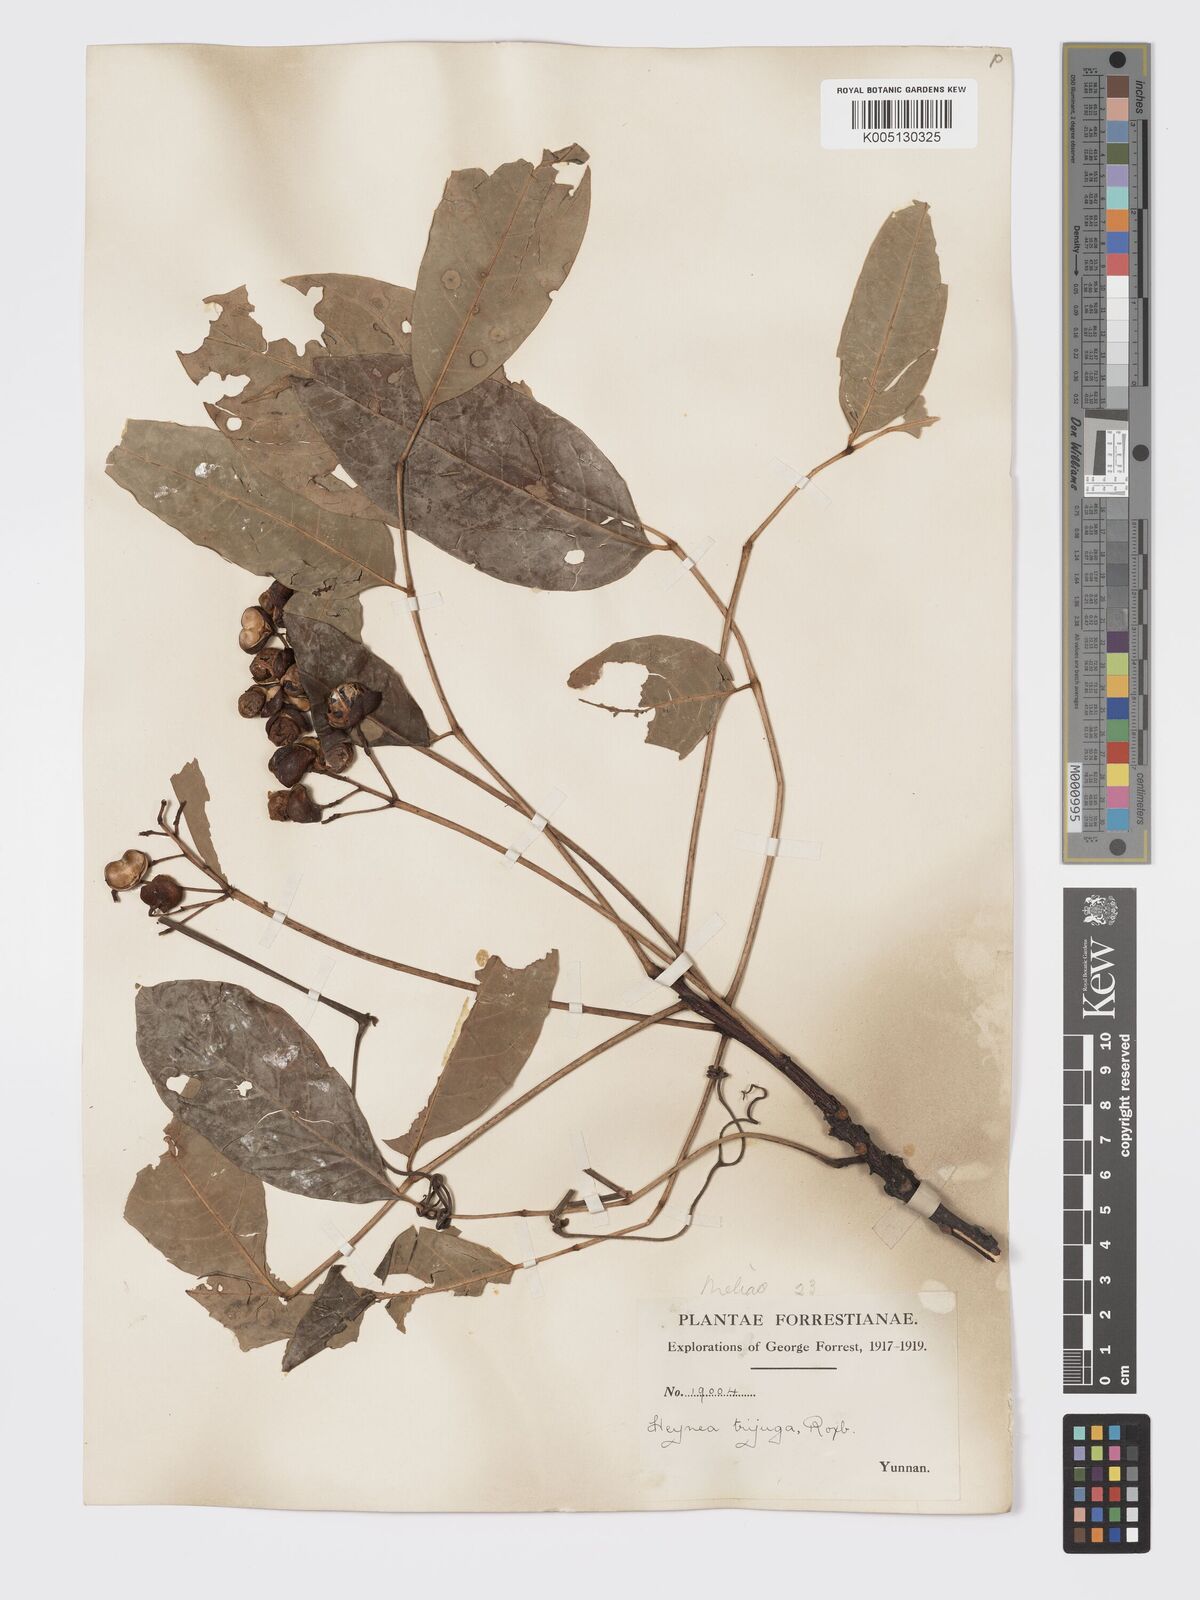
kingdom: Plantae
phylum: Tracheophyta
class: Magnoliopsida
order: Sapindales
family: Meliaceae
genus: Heynea
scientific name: Heynea trijuga
